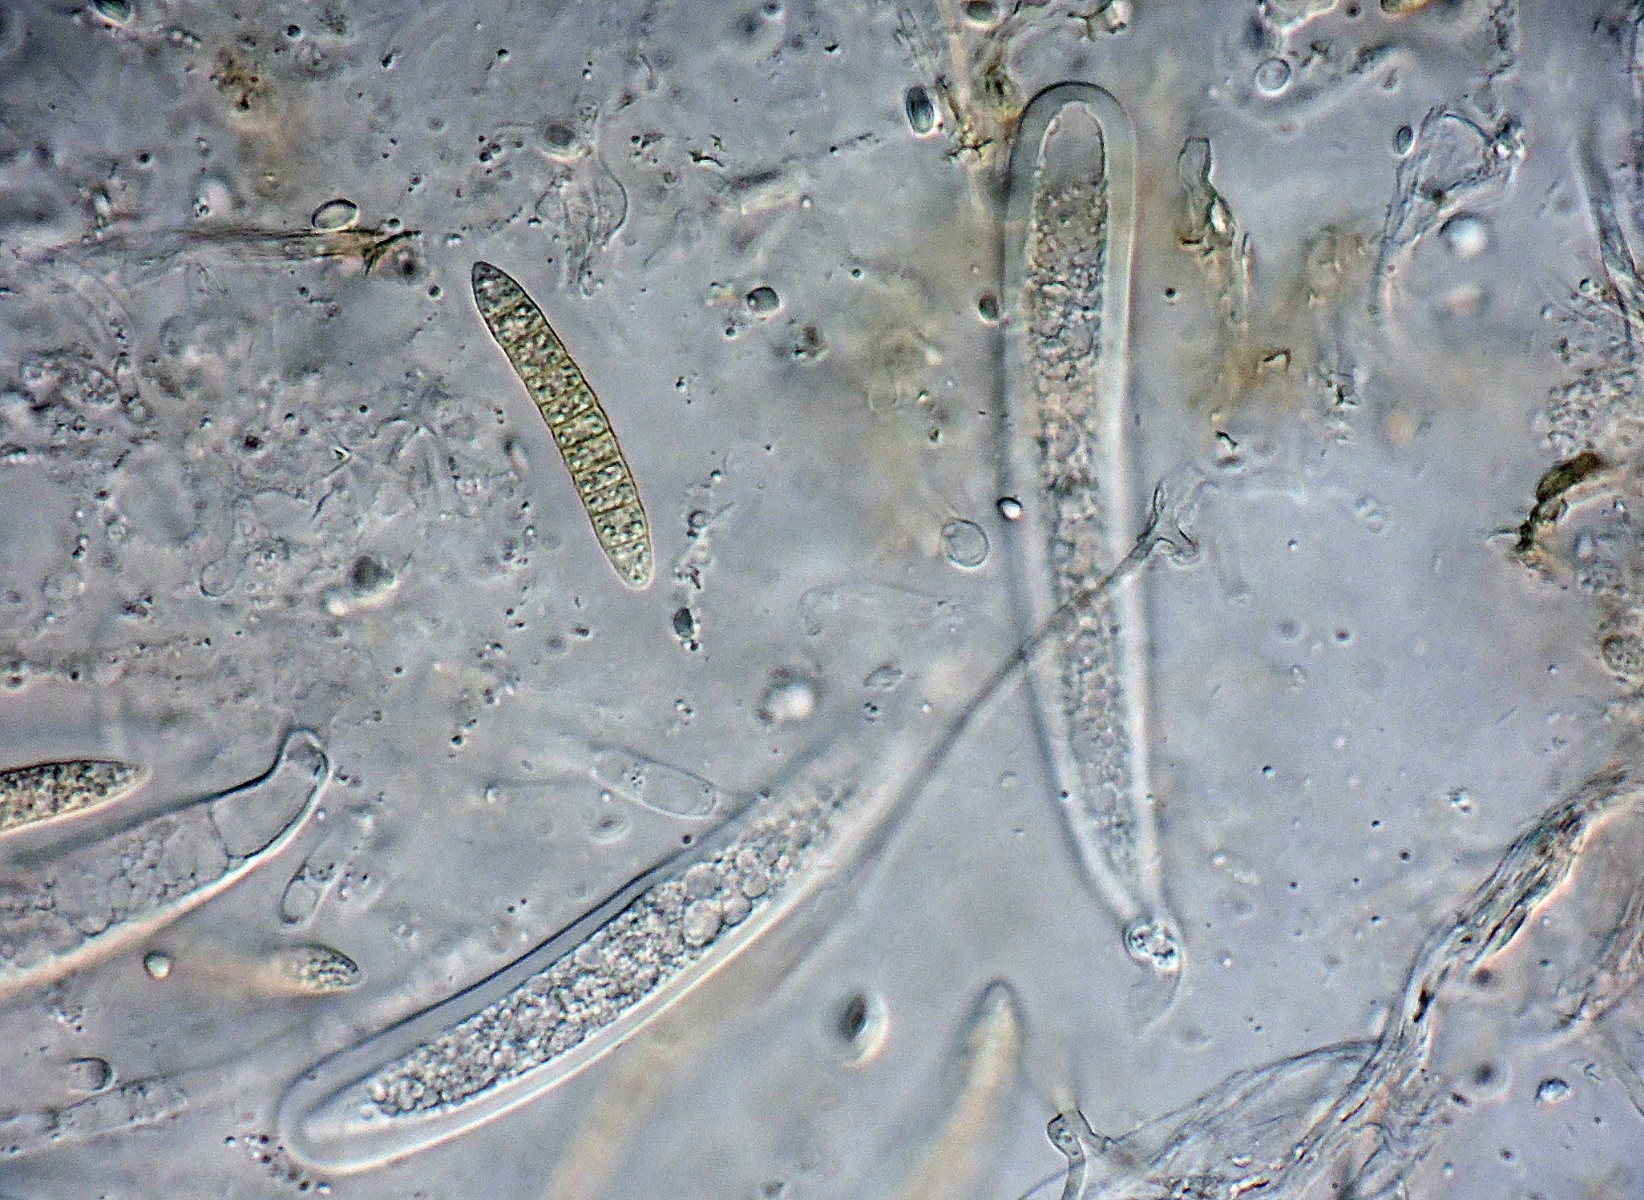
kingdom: Fungi
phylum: Ascomycota
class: Dothideomycetes
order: Pleosporales
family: Phaeosphaeriaceae
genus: Phaeosphaeria
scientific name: Phaeosphaeria berlesei
